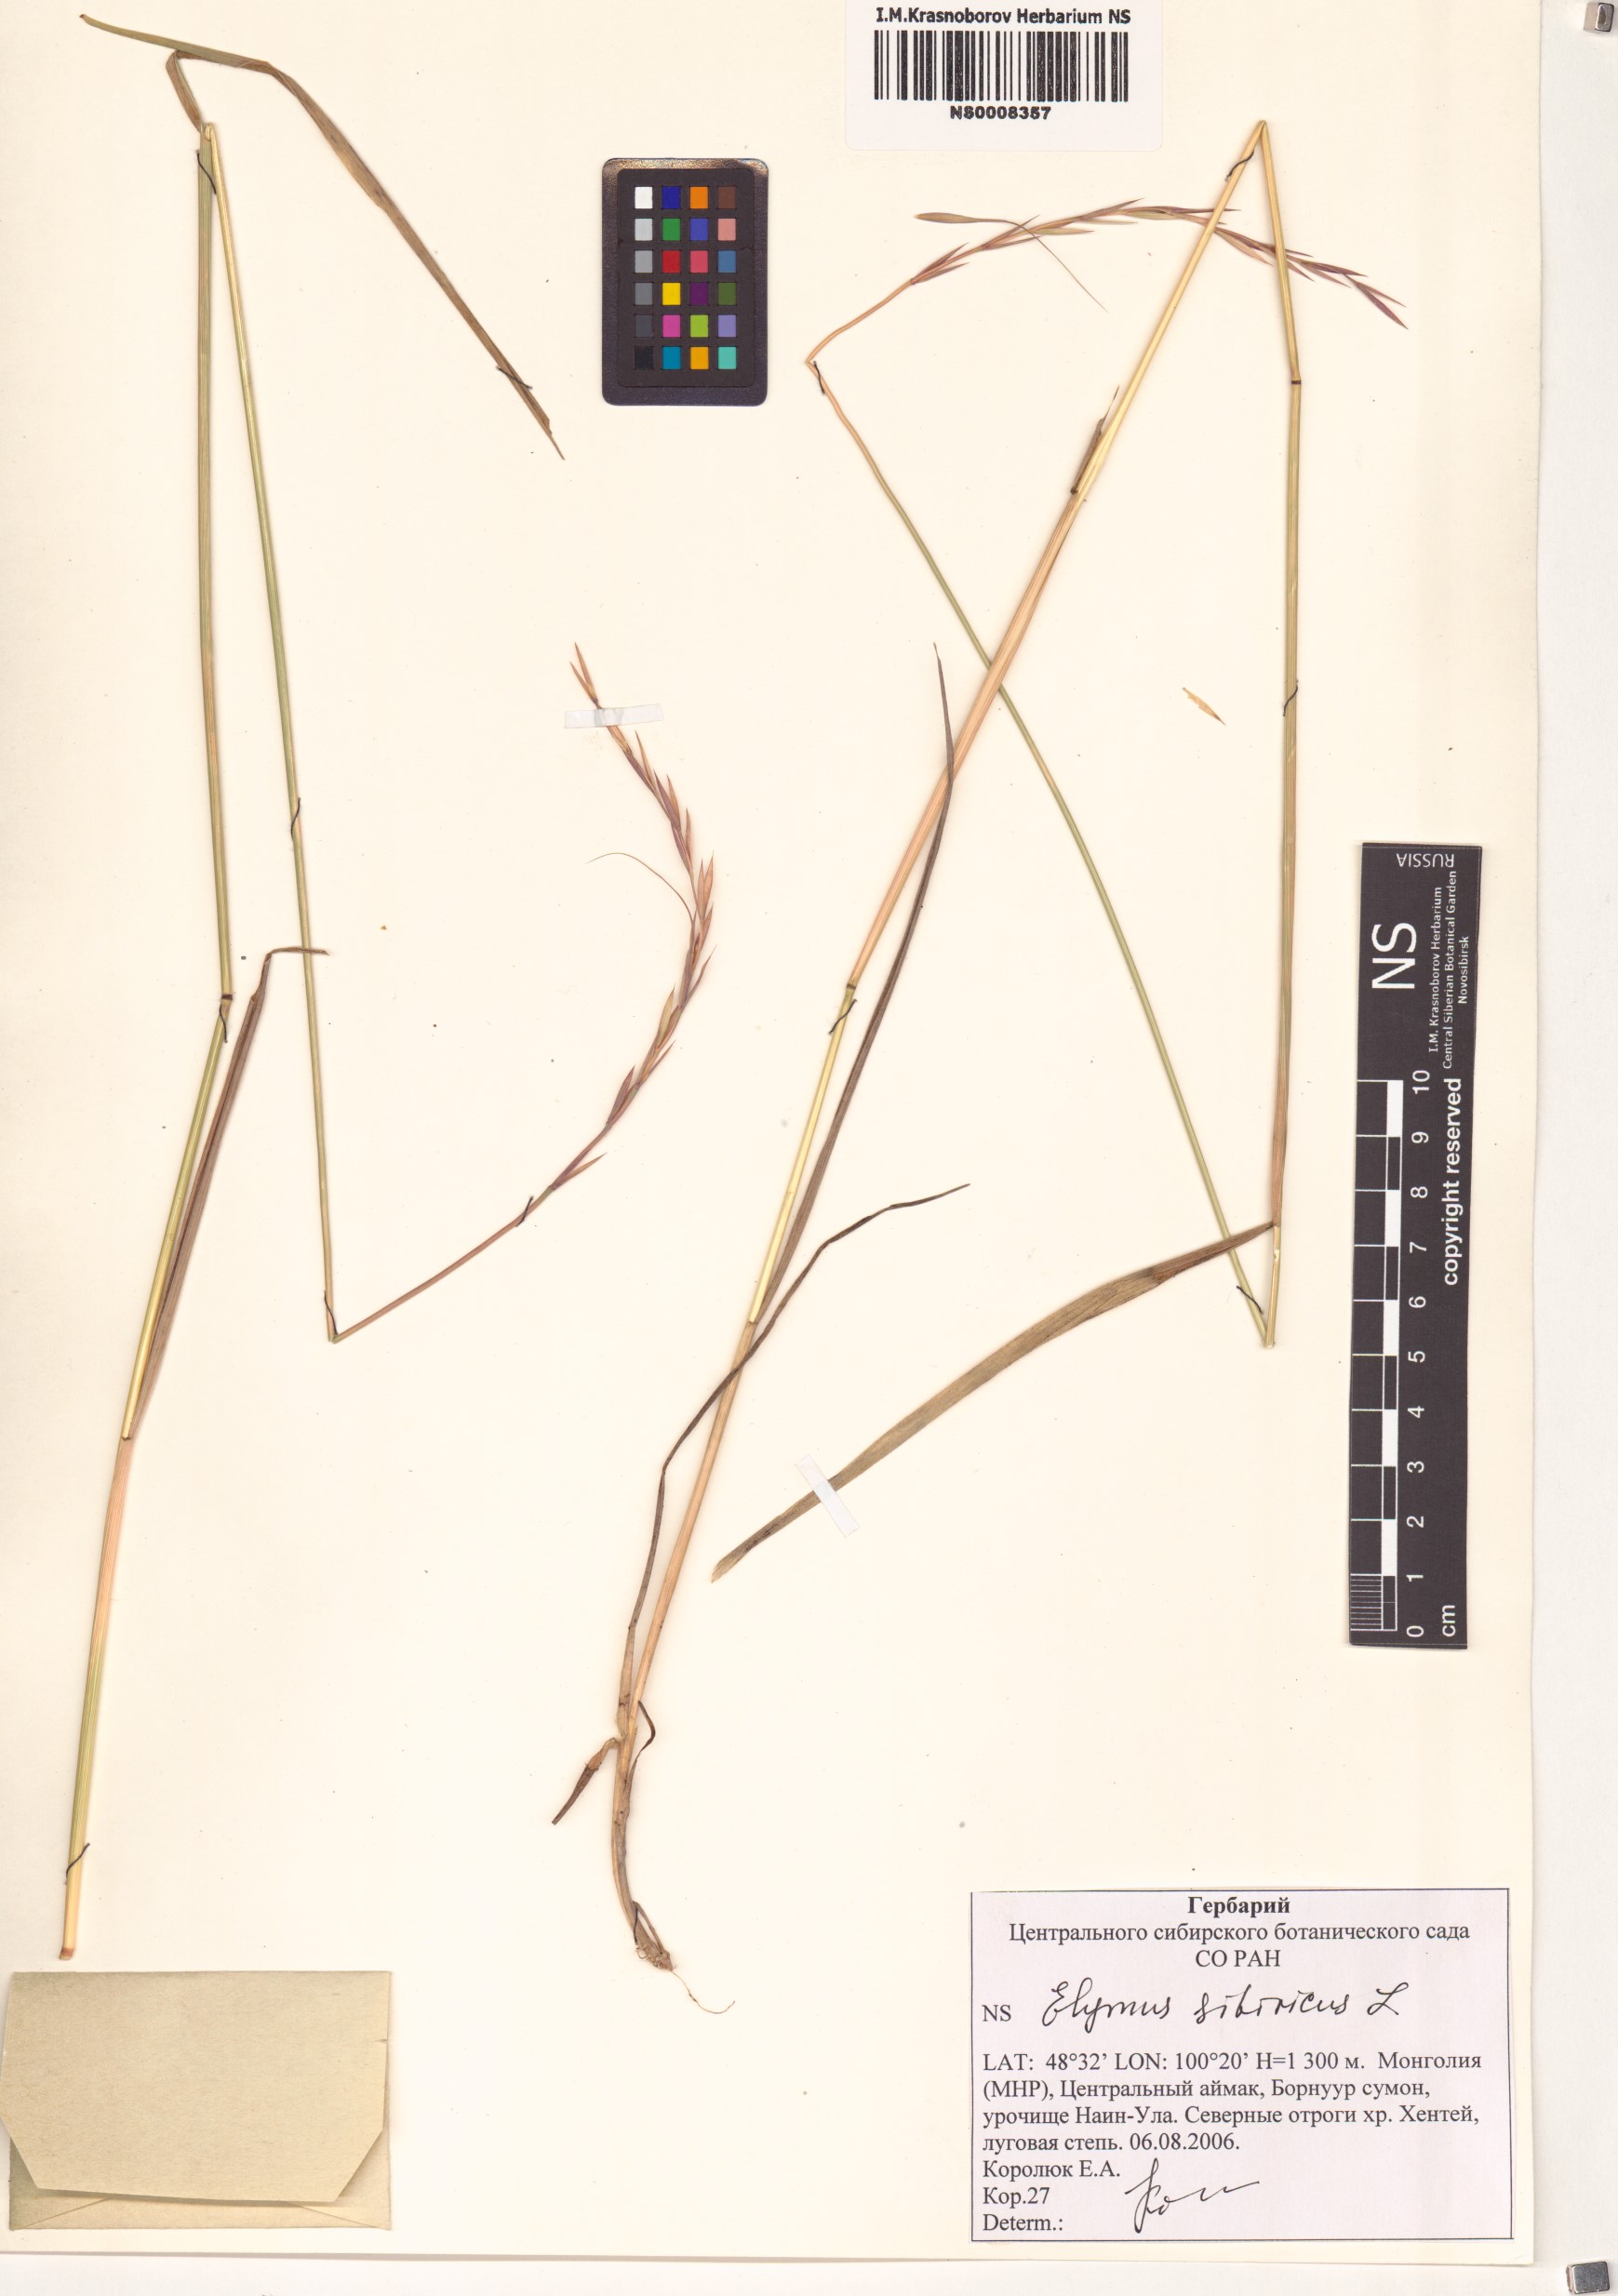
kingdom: Plantae
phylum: Tracheophyta
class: Liliopsida
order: Poales
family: Poaceae
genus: Elymus
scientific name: Elymus sibiricus
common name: Siberian wildrye
